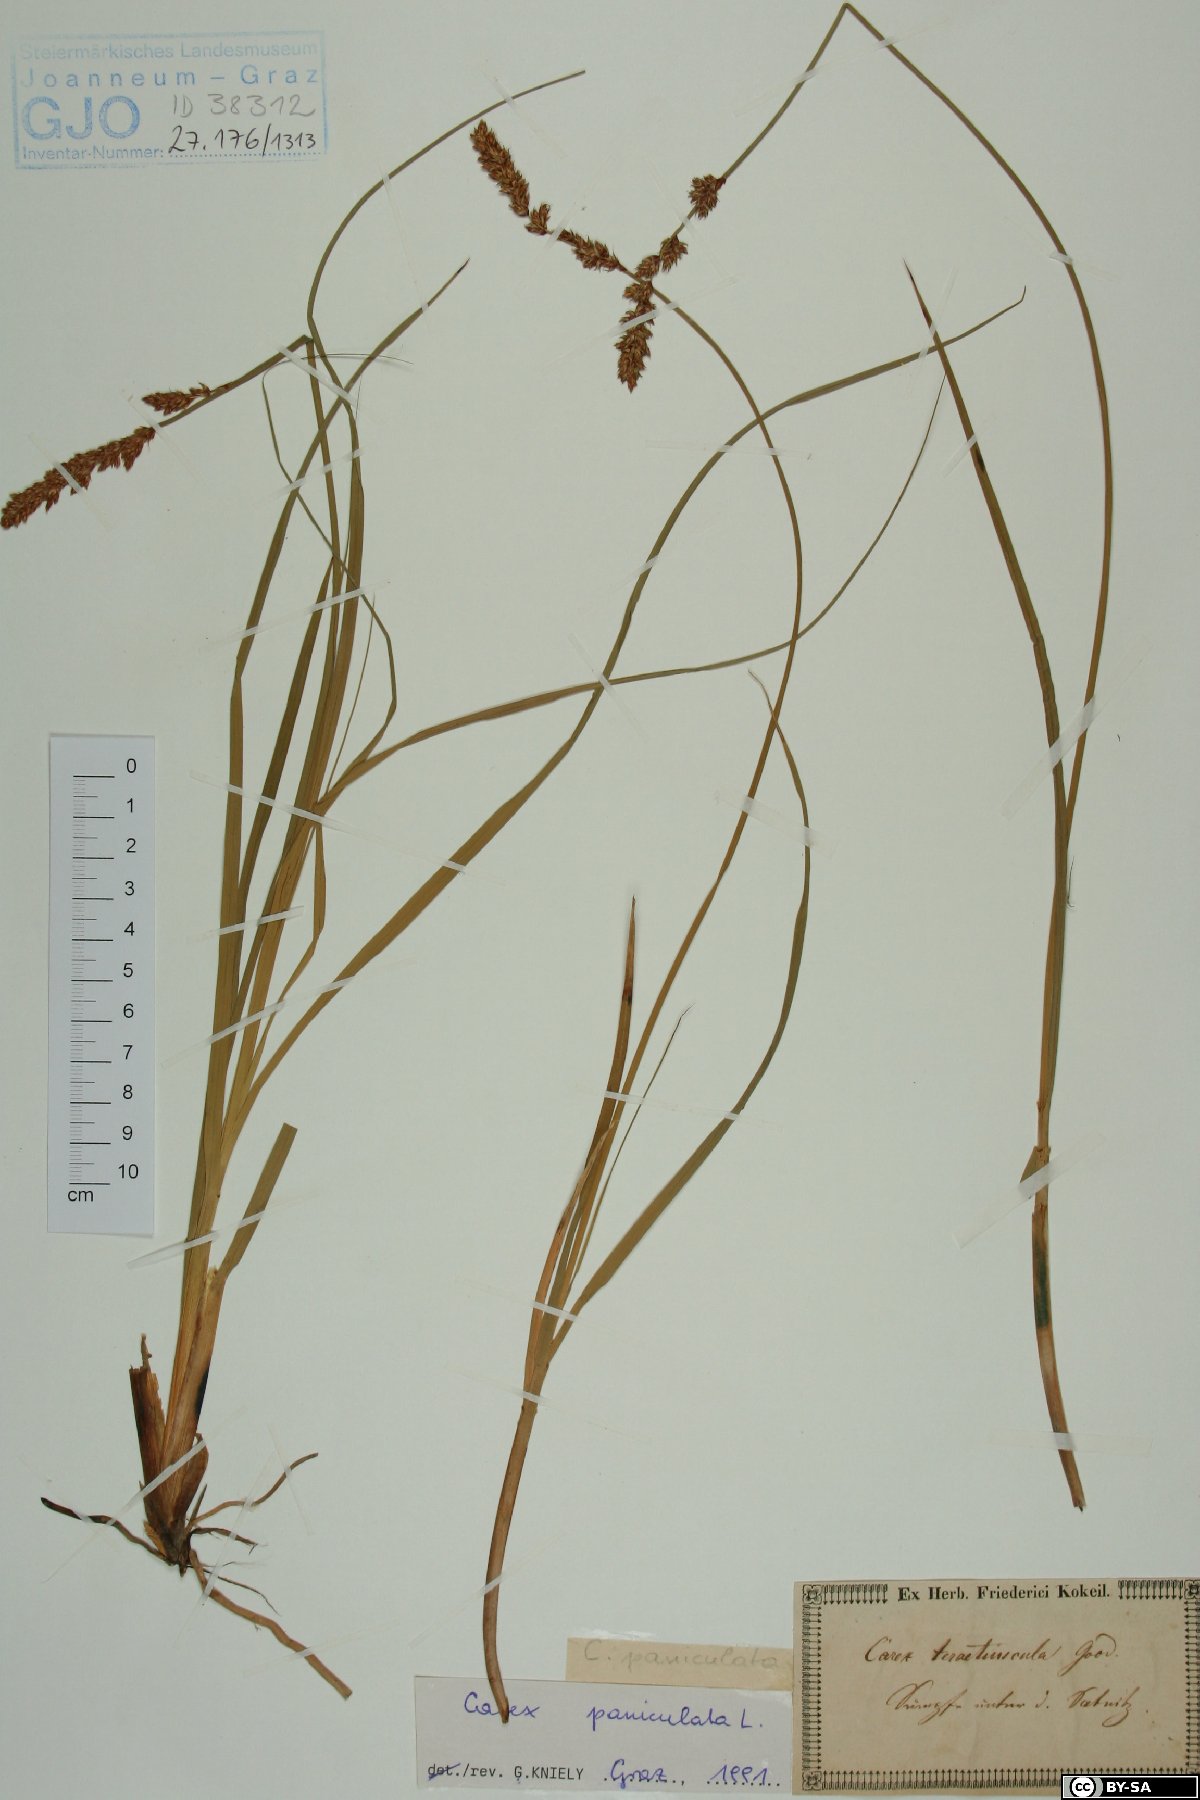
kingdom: Plantae
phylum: Tracheophyta
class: Liliopsida
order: Poales
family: Cyperaceae
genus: Carex
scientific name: Carex paniculata
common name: Greater tussock-sedge
